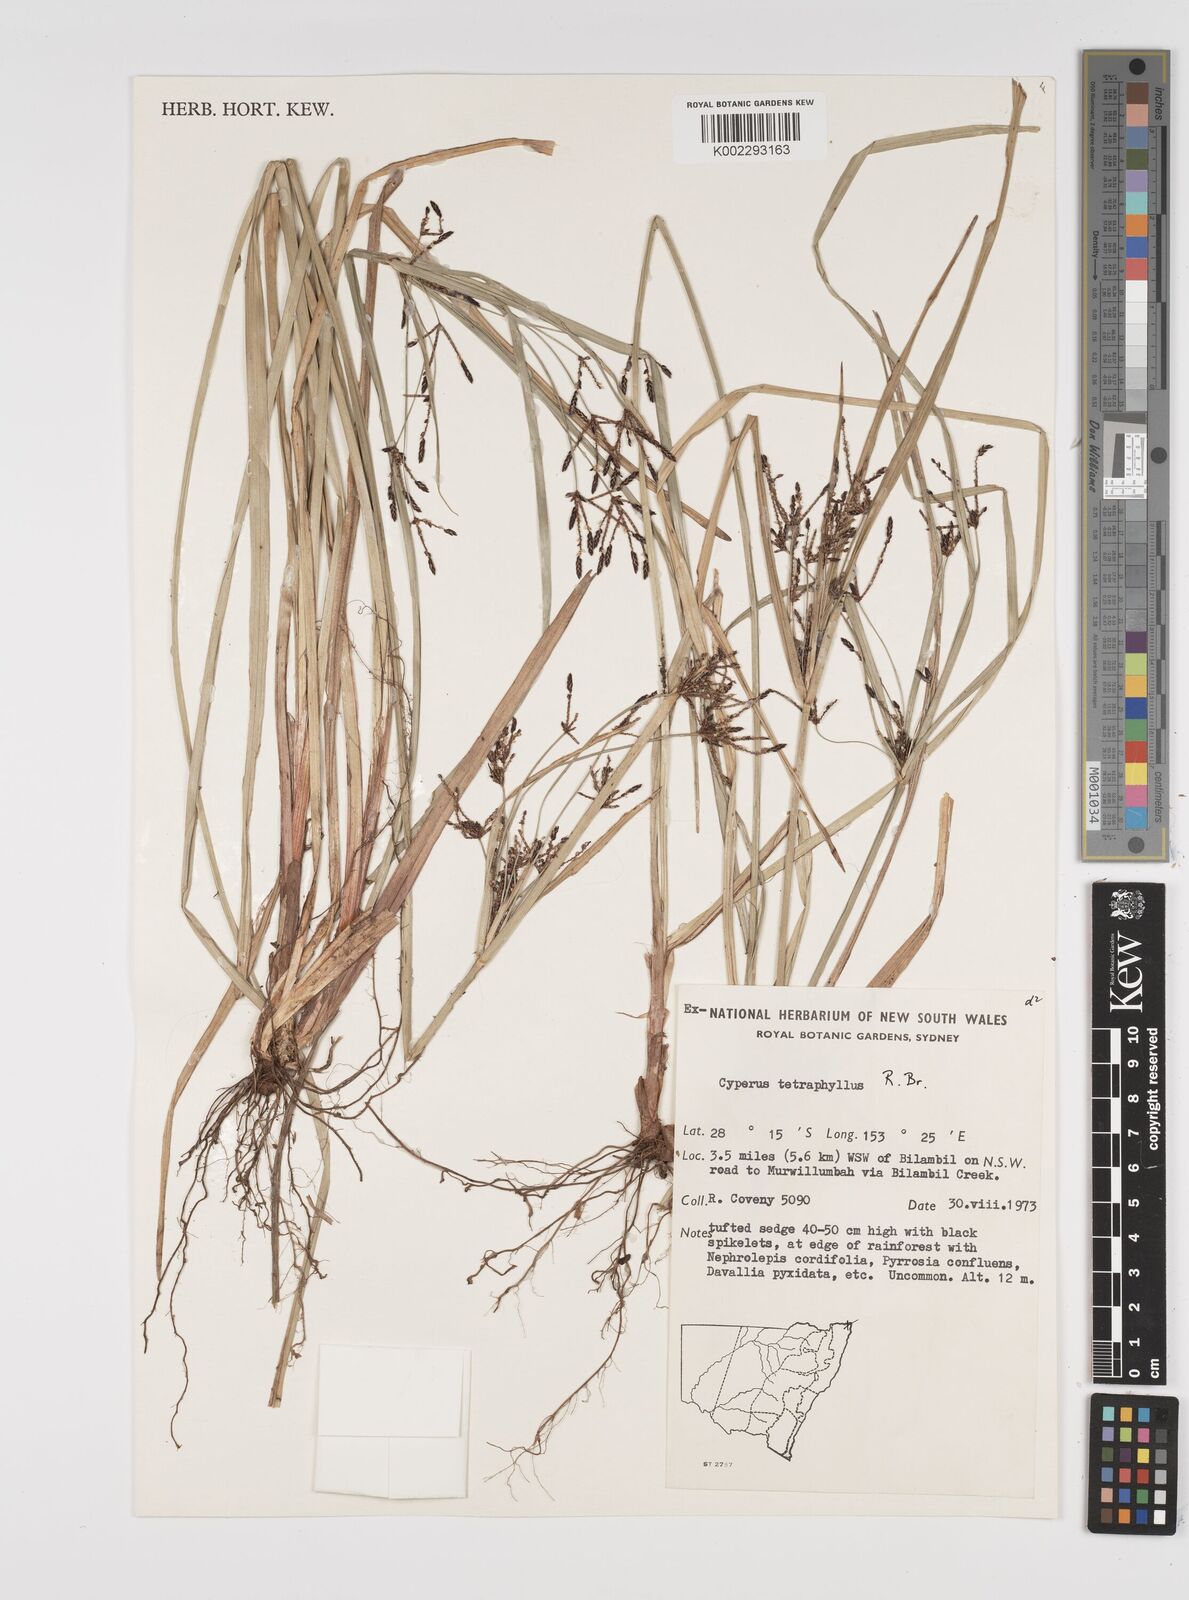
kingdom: Plantae
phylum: Tracheophyta
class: Liliopsida
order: Poales
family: Cyperaceae
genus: Cyperus
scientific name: Cyperus tetraphyllus
